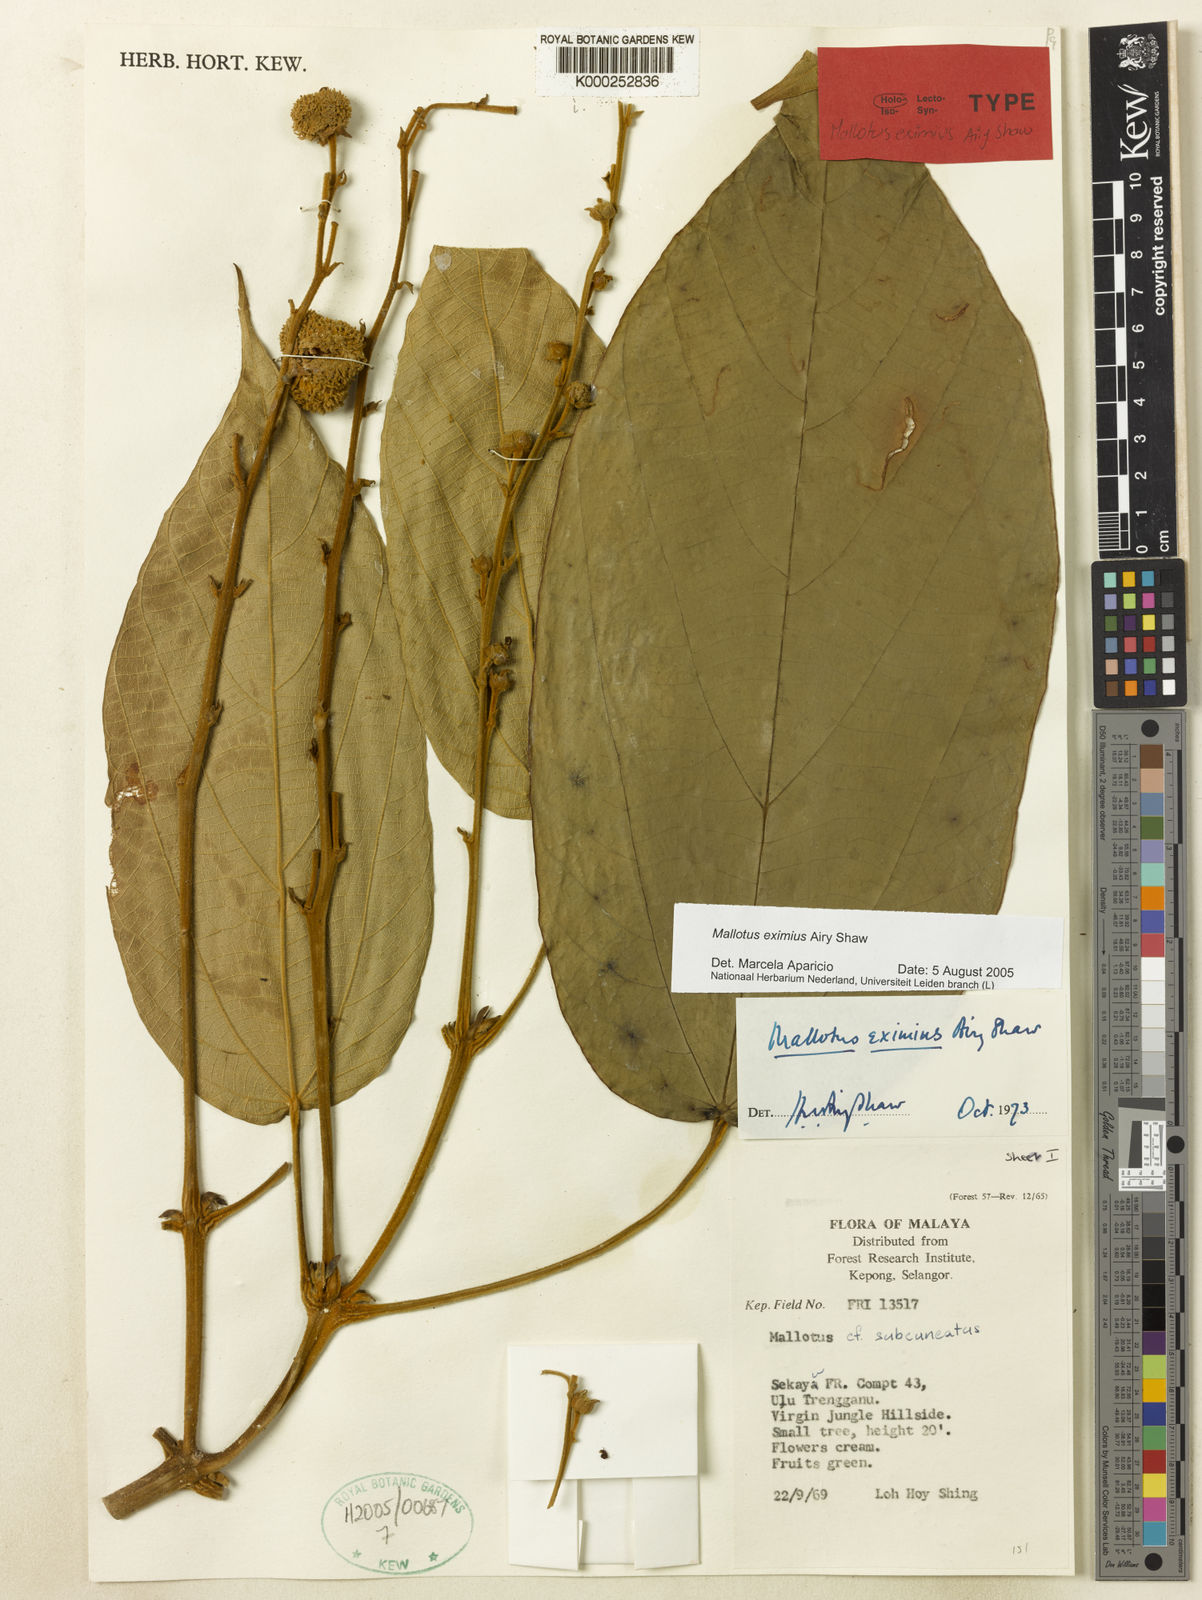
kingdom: Plantae
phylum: Tracheophyta
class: Magnoliopsida
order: Malpighiales
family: Euphorbiaceae
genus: Mallotus
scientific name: Mallotus eximius
